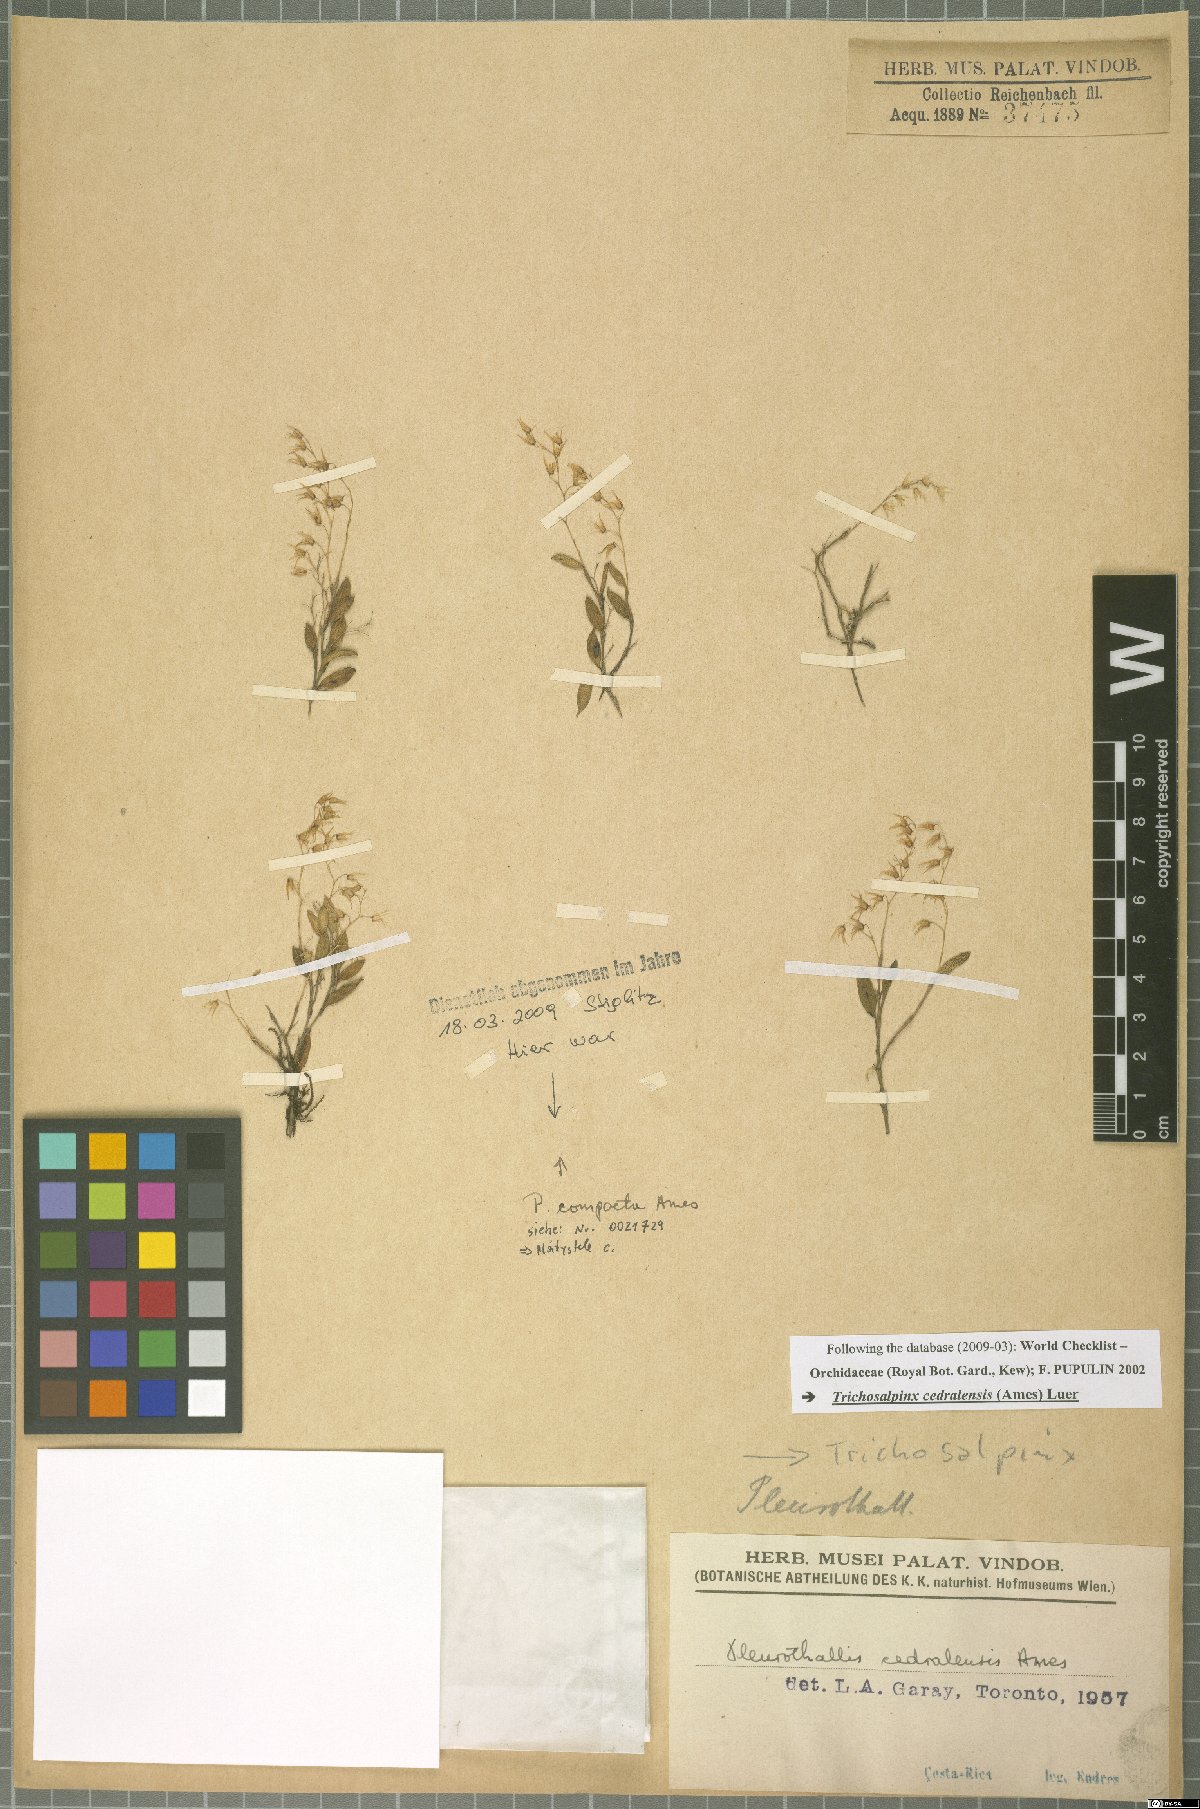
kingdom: Plantae
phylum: Tracheophyta
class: Liliopsida
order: Asparagales
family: Orchidaceae
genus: Trichosalpinx
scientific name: Trichosalpinx cedralensis
